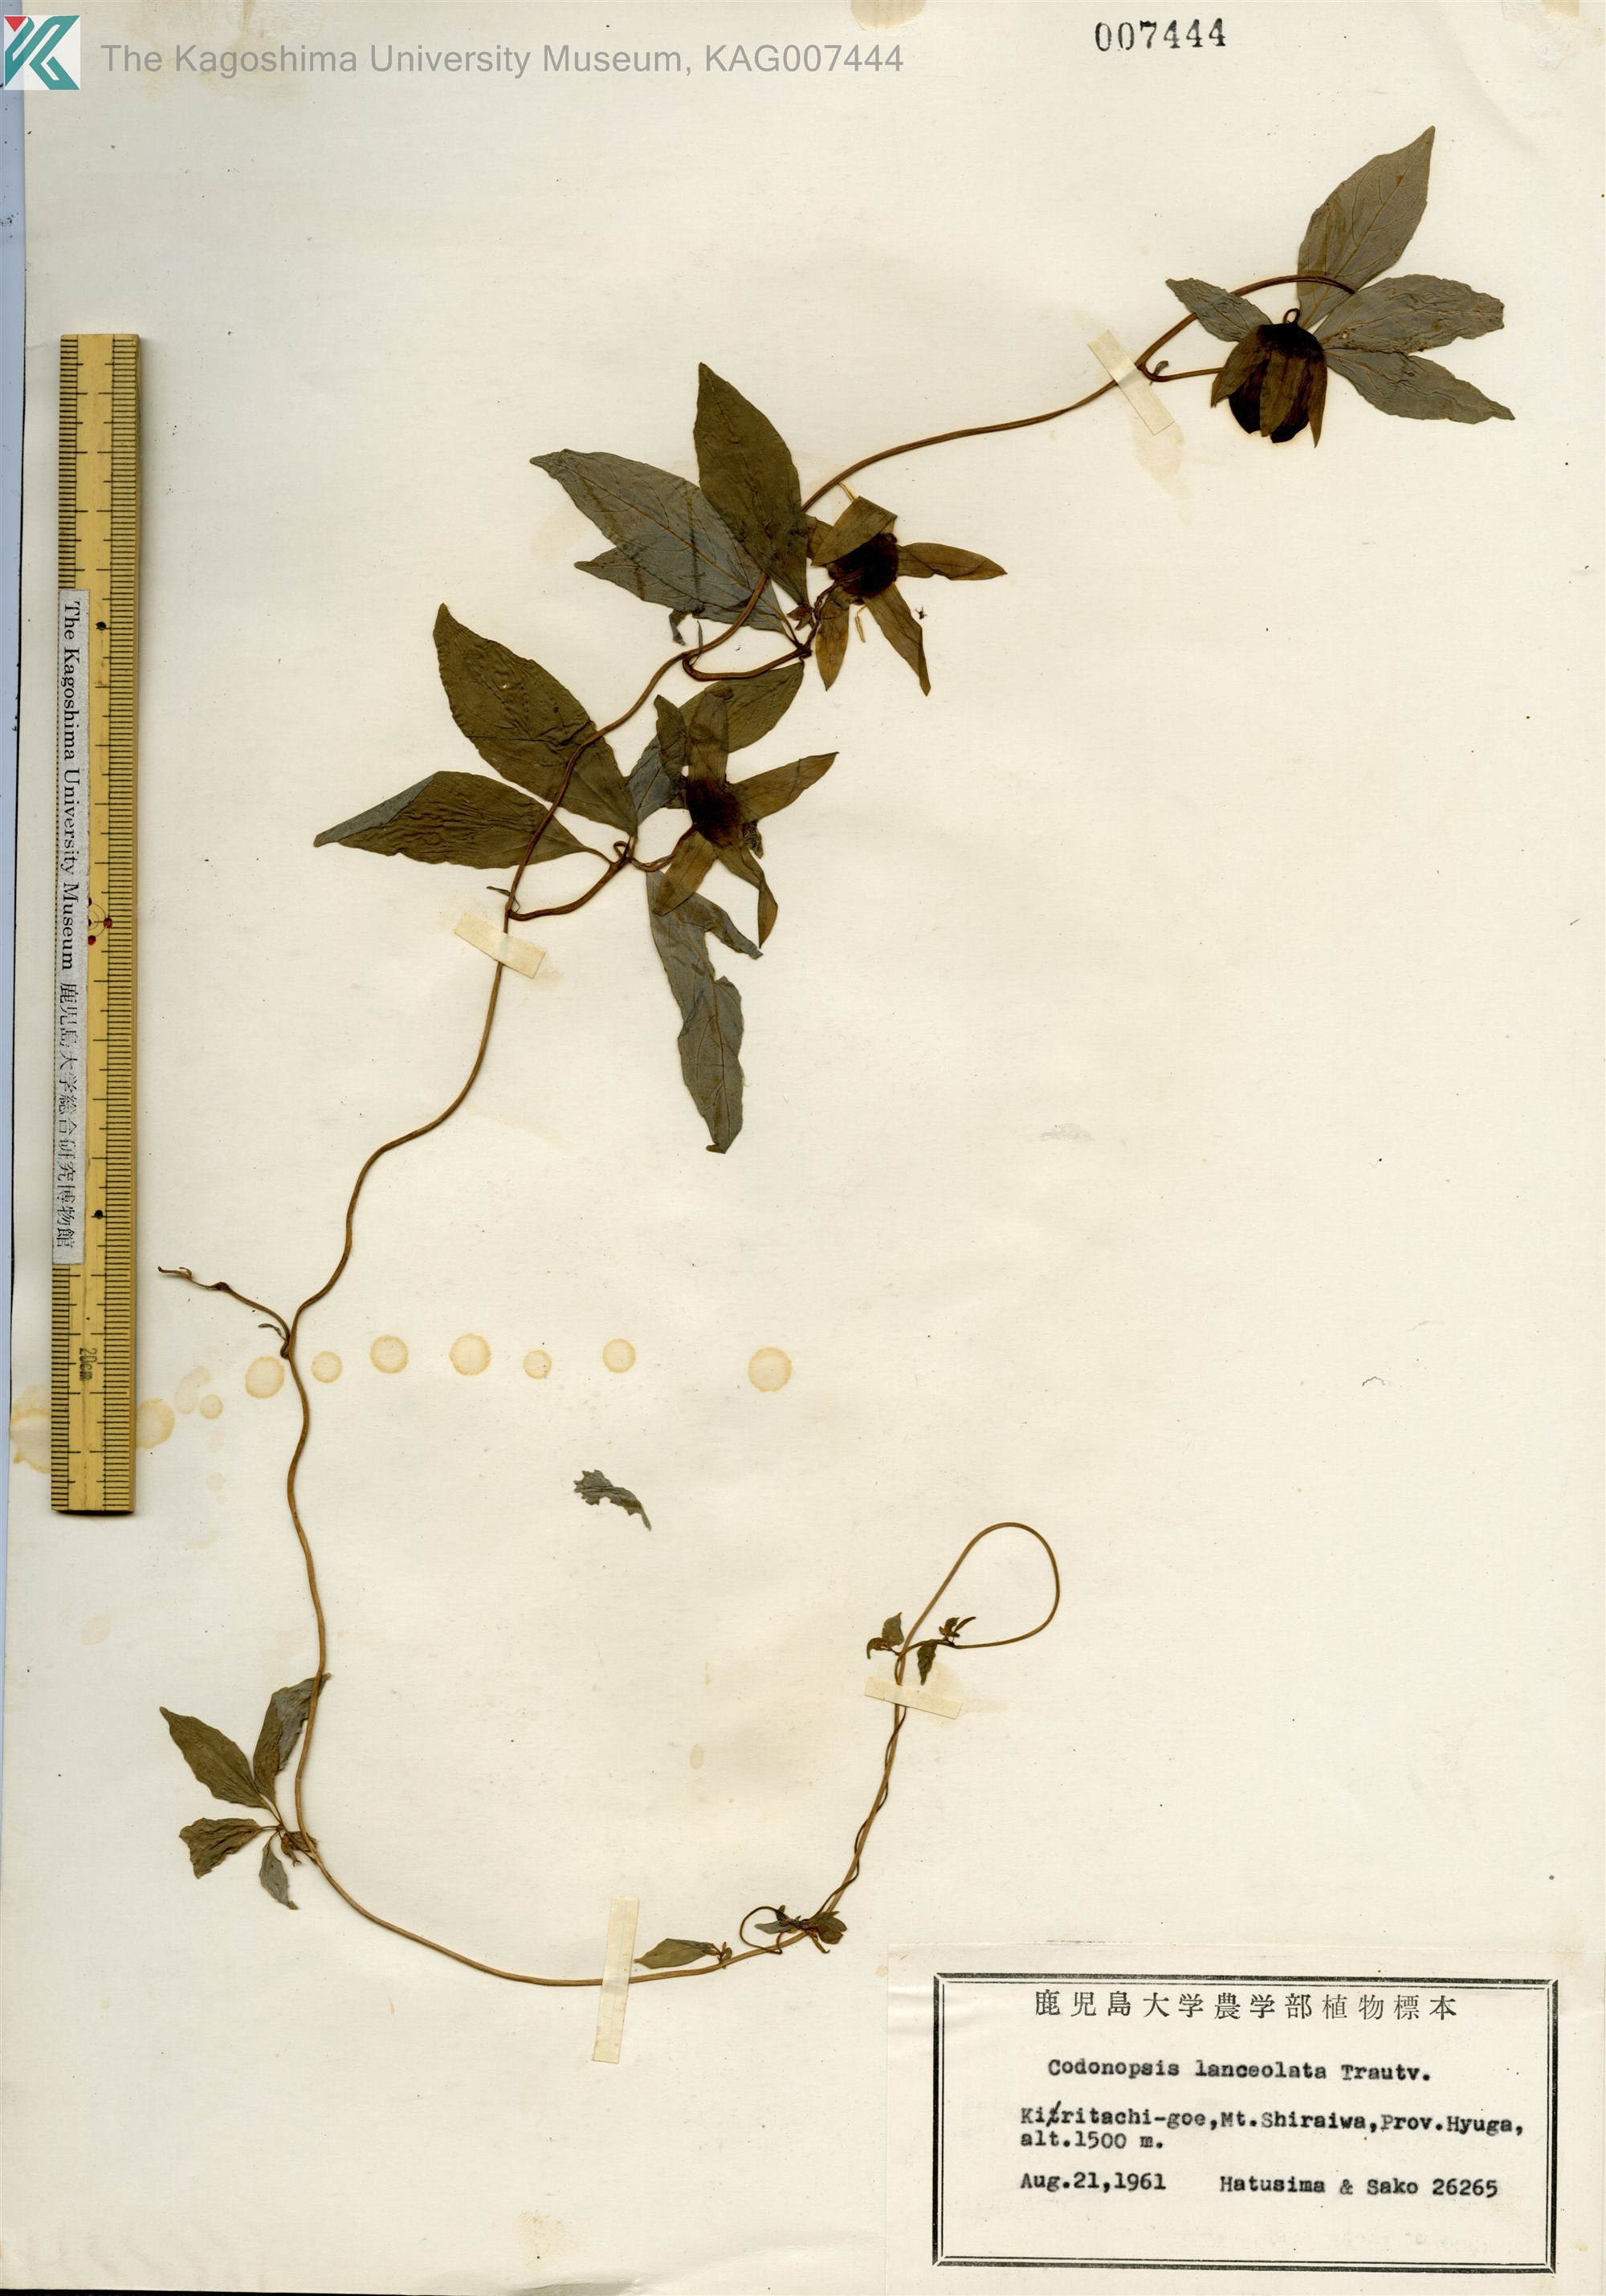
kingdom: Plantae
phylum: Tracheophyta
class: Magnoliopsida
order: Asterales
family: Campanulaceae
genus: Codonopsis
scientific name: Codonopsis lanceolata
